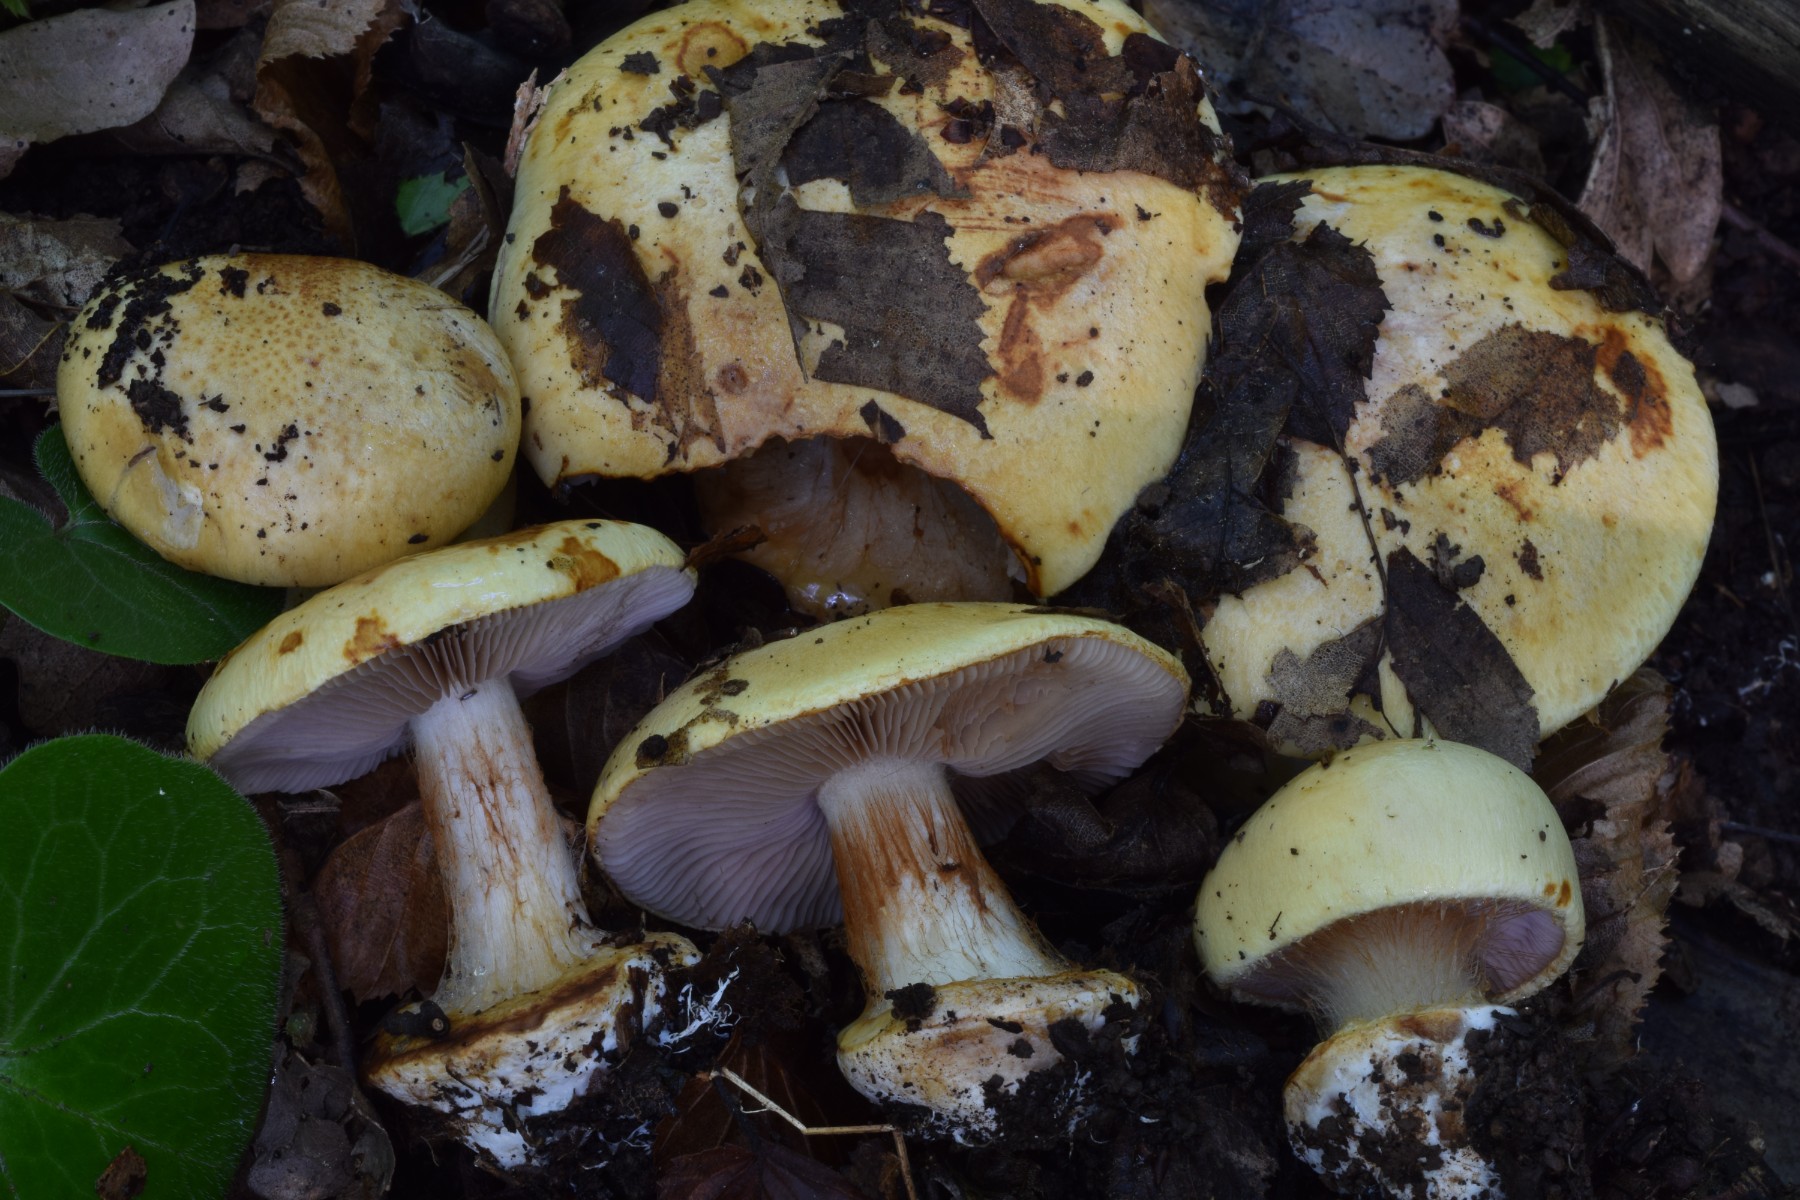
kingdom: Fungi
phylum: Basidiomycota
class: Agaricomycetes
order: Agaricales
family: Cortinariaceae
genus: Calonarius
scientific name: Calonarius flavoaurantians
